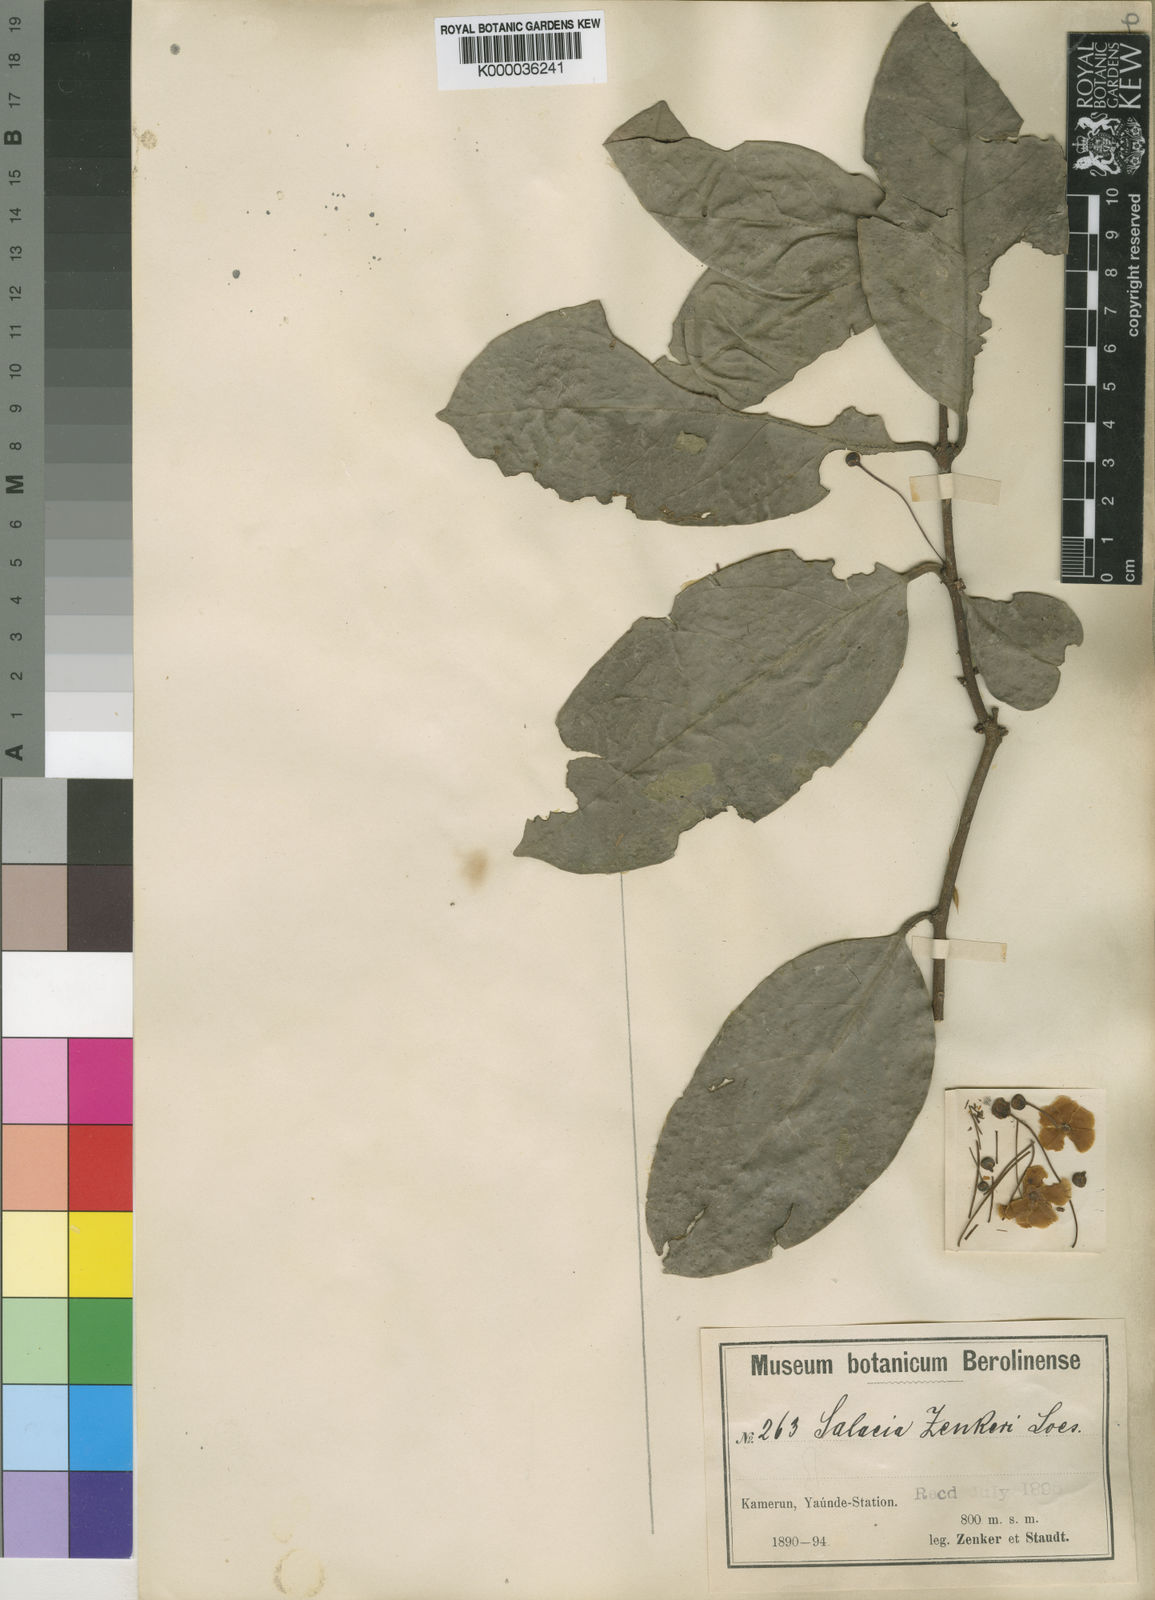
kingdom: Plantae
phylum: Tracheophyta
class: Magnoliopsida
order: Celastrales
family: Celastraceae
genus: Salacia
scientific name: Salacia zenkeri
